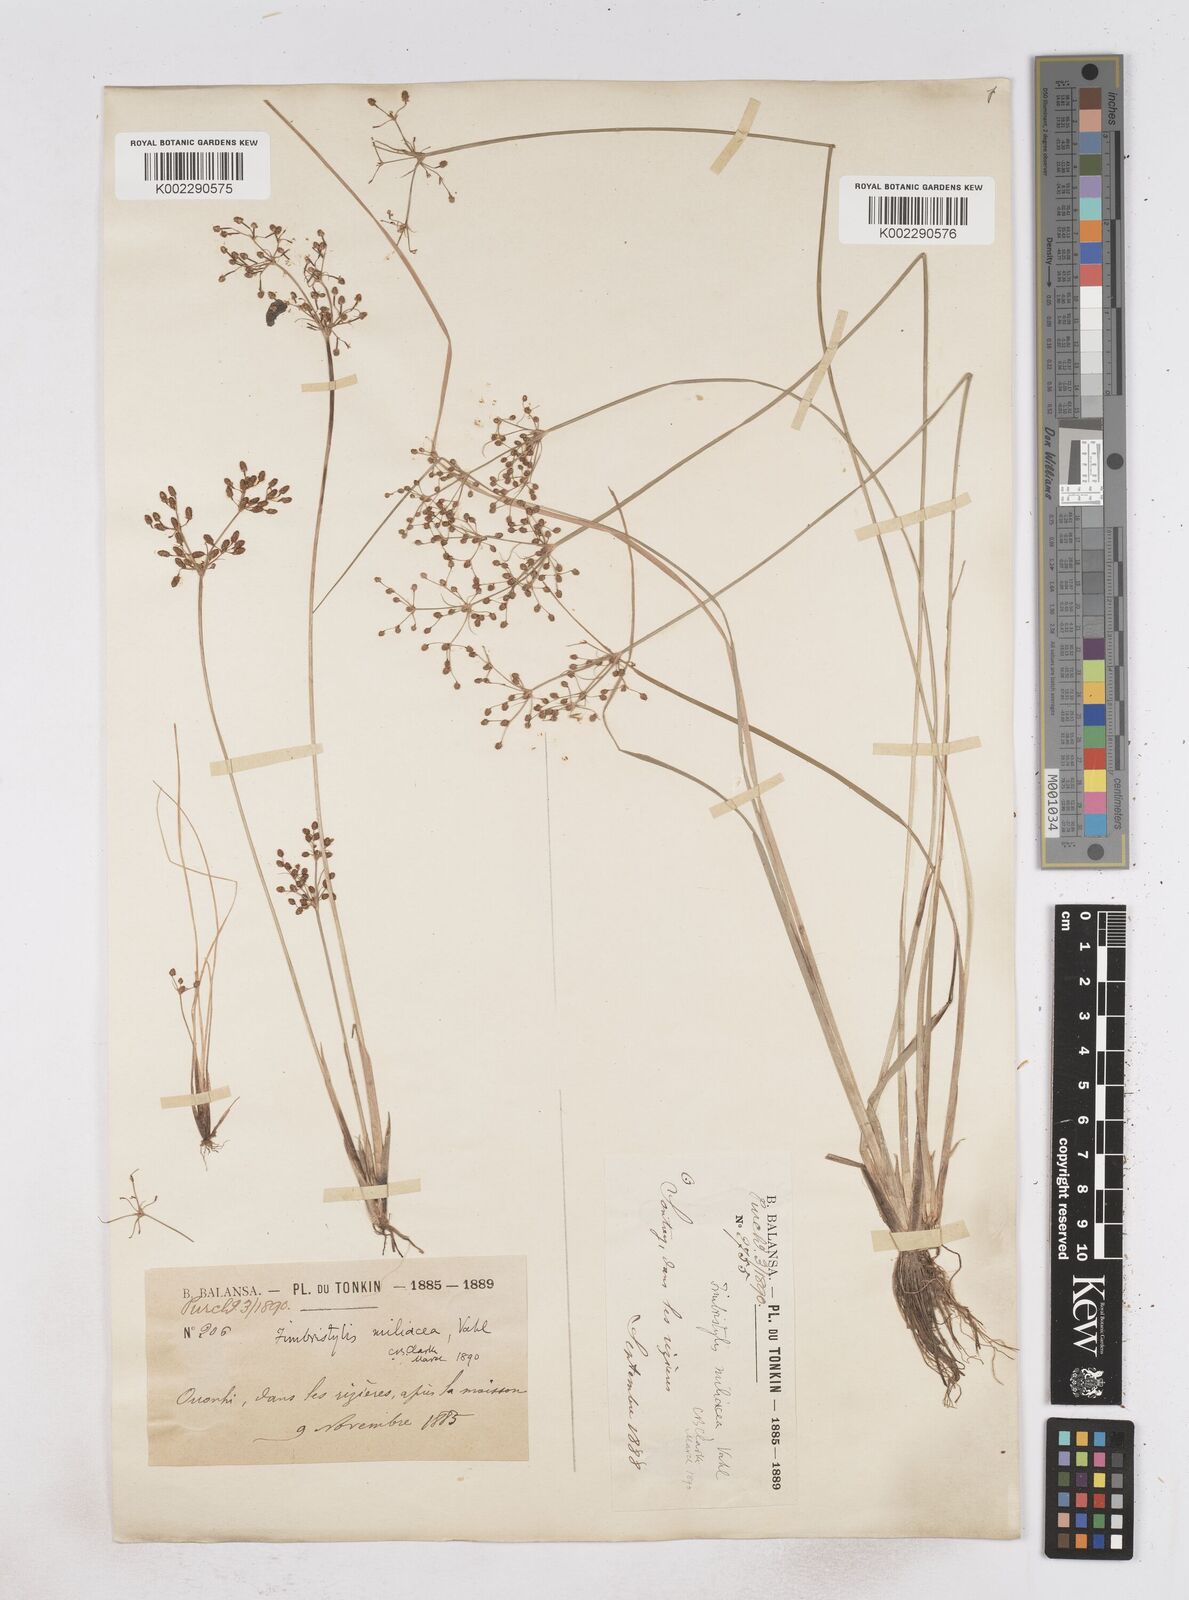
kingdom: Plantae
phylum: Tracheophyta
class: Liliopsida
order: Poales
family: Cyperaceae
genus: Fimbristylis
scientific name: Fimbristylis littoralis
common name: Fimbry
